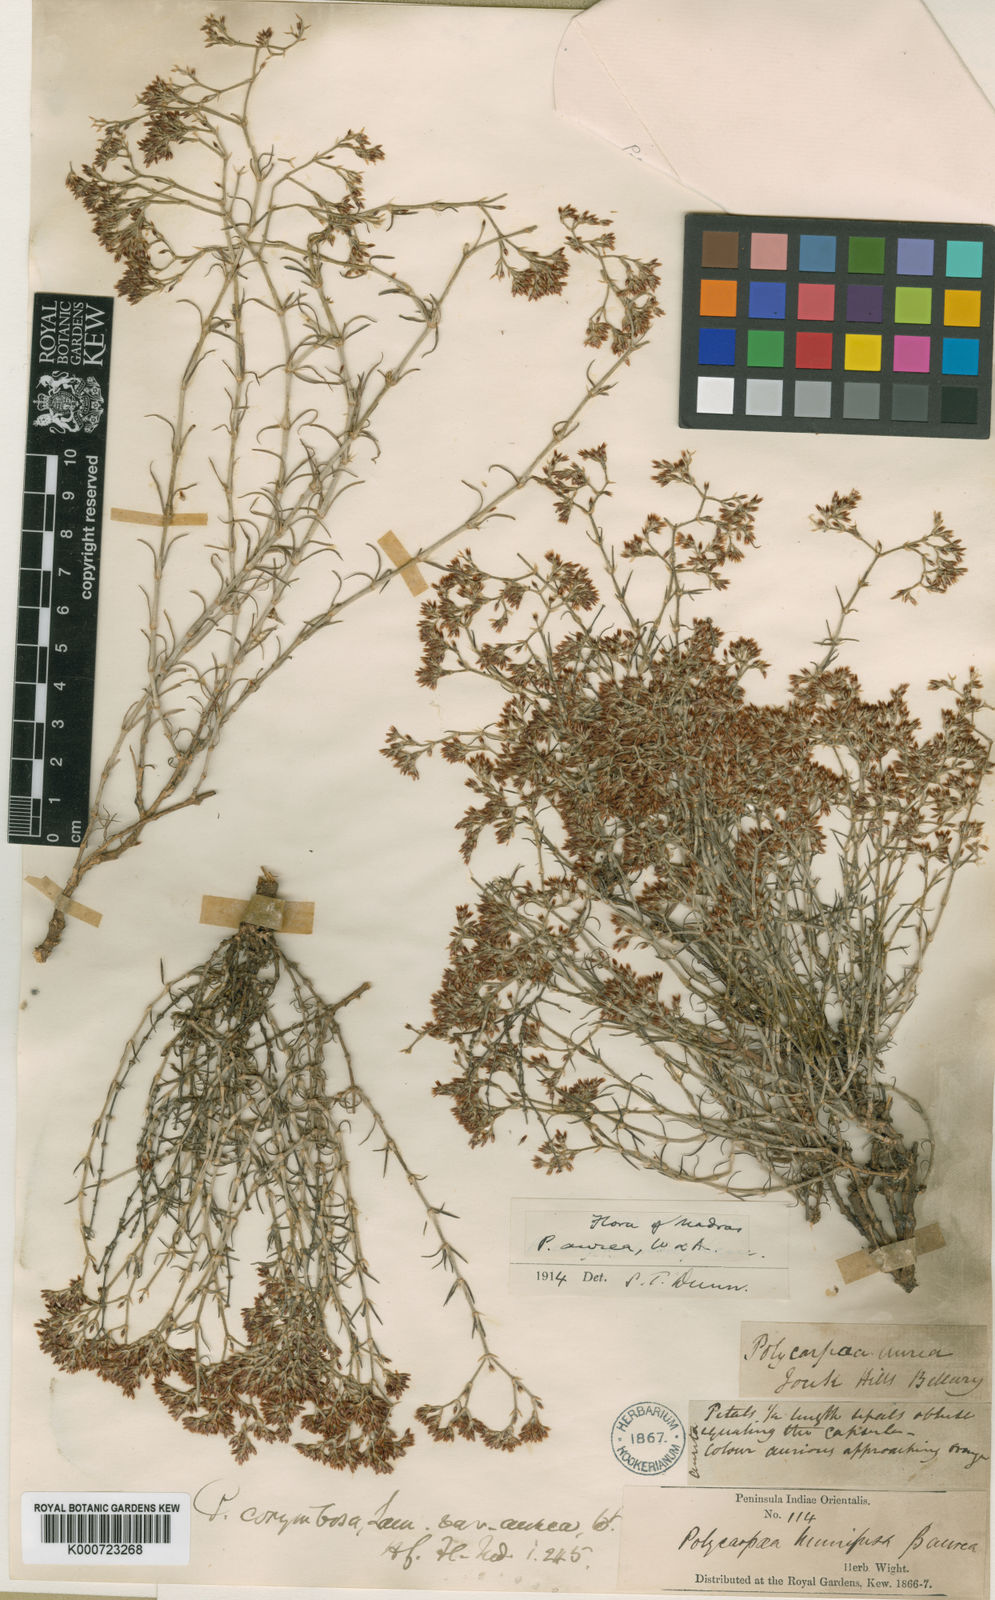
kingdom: Plantae
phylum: Tracheophyta
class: Magnoliopsida
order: Caryophyllales
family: Caryophyllaceae
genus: Polycarpaea
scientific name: Polycarpaea aurea
